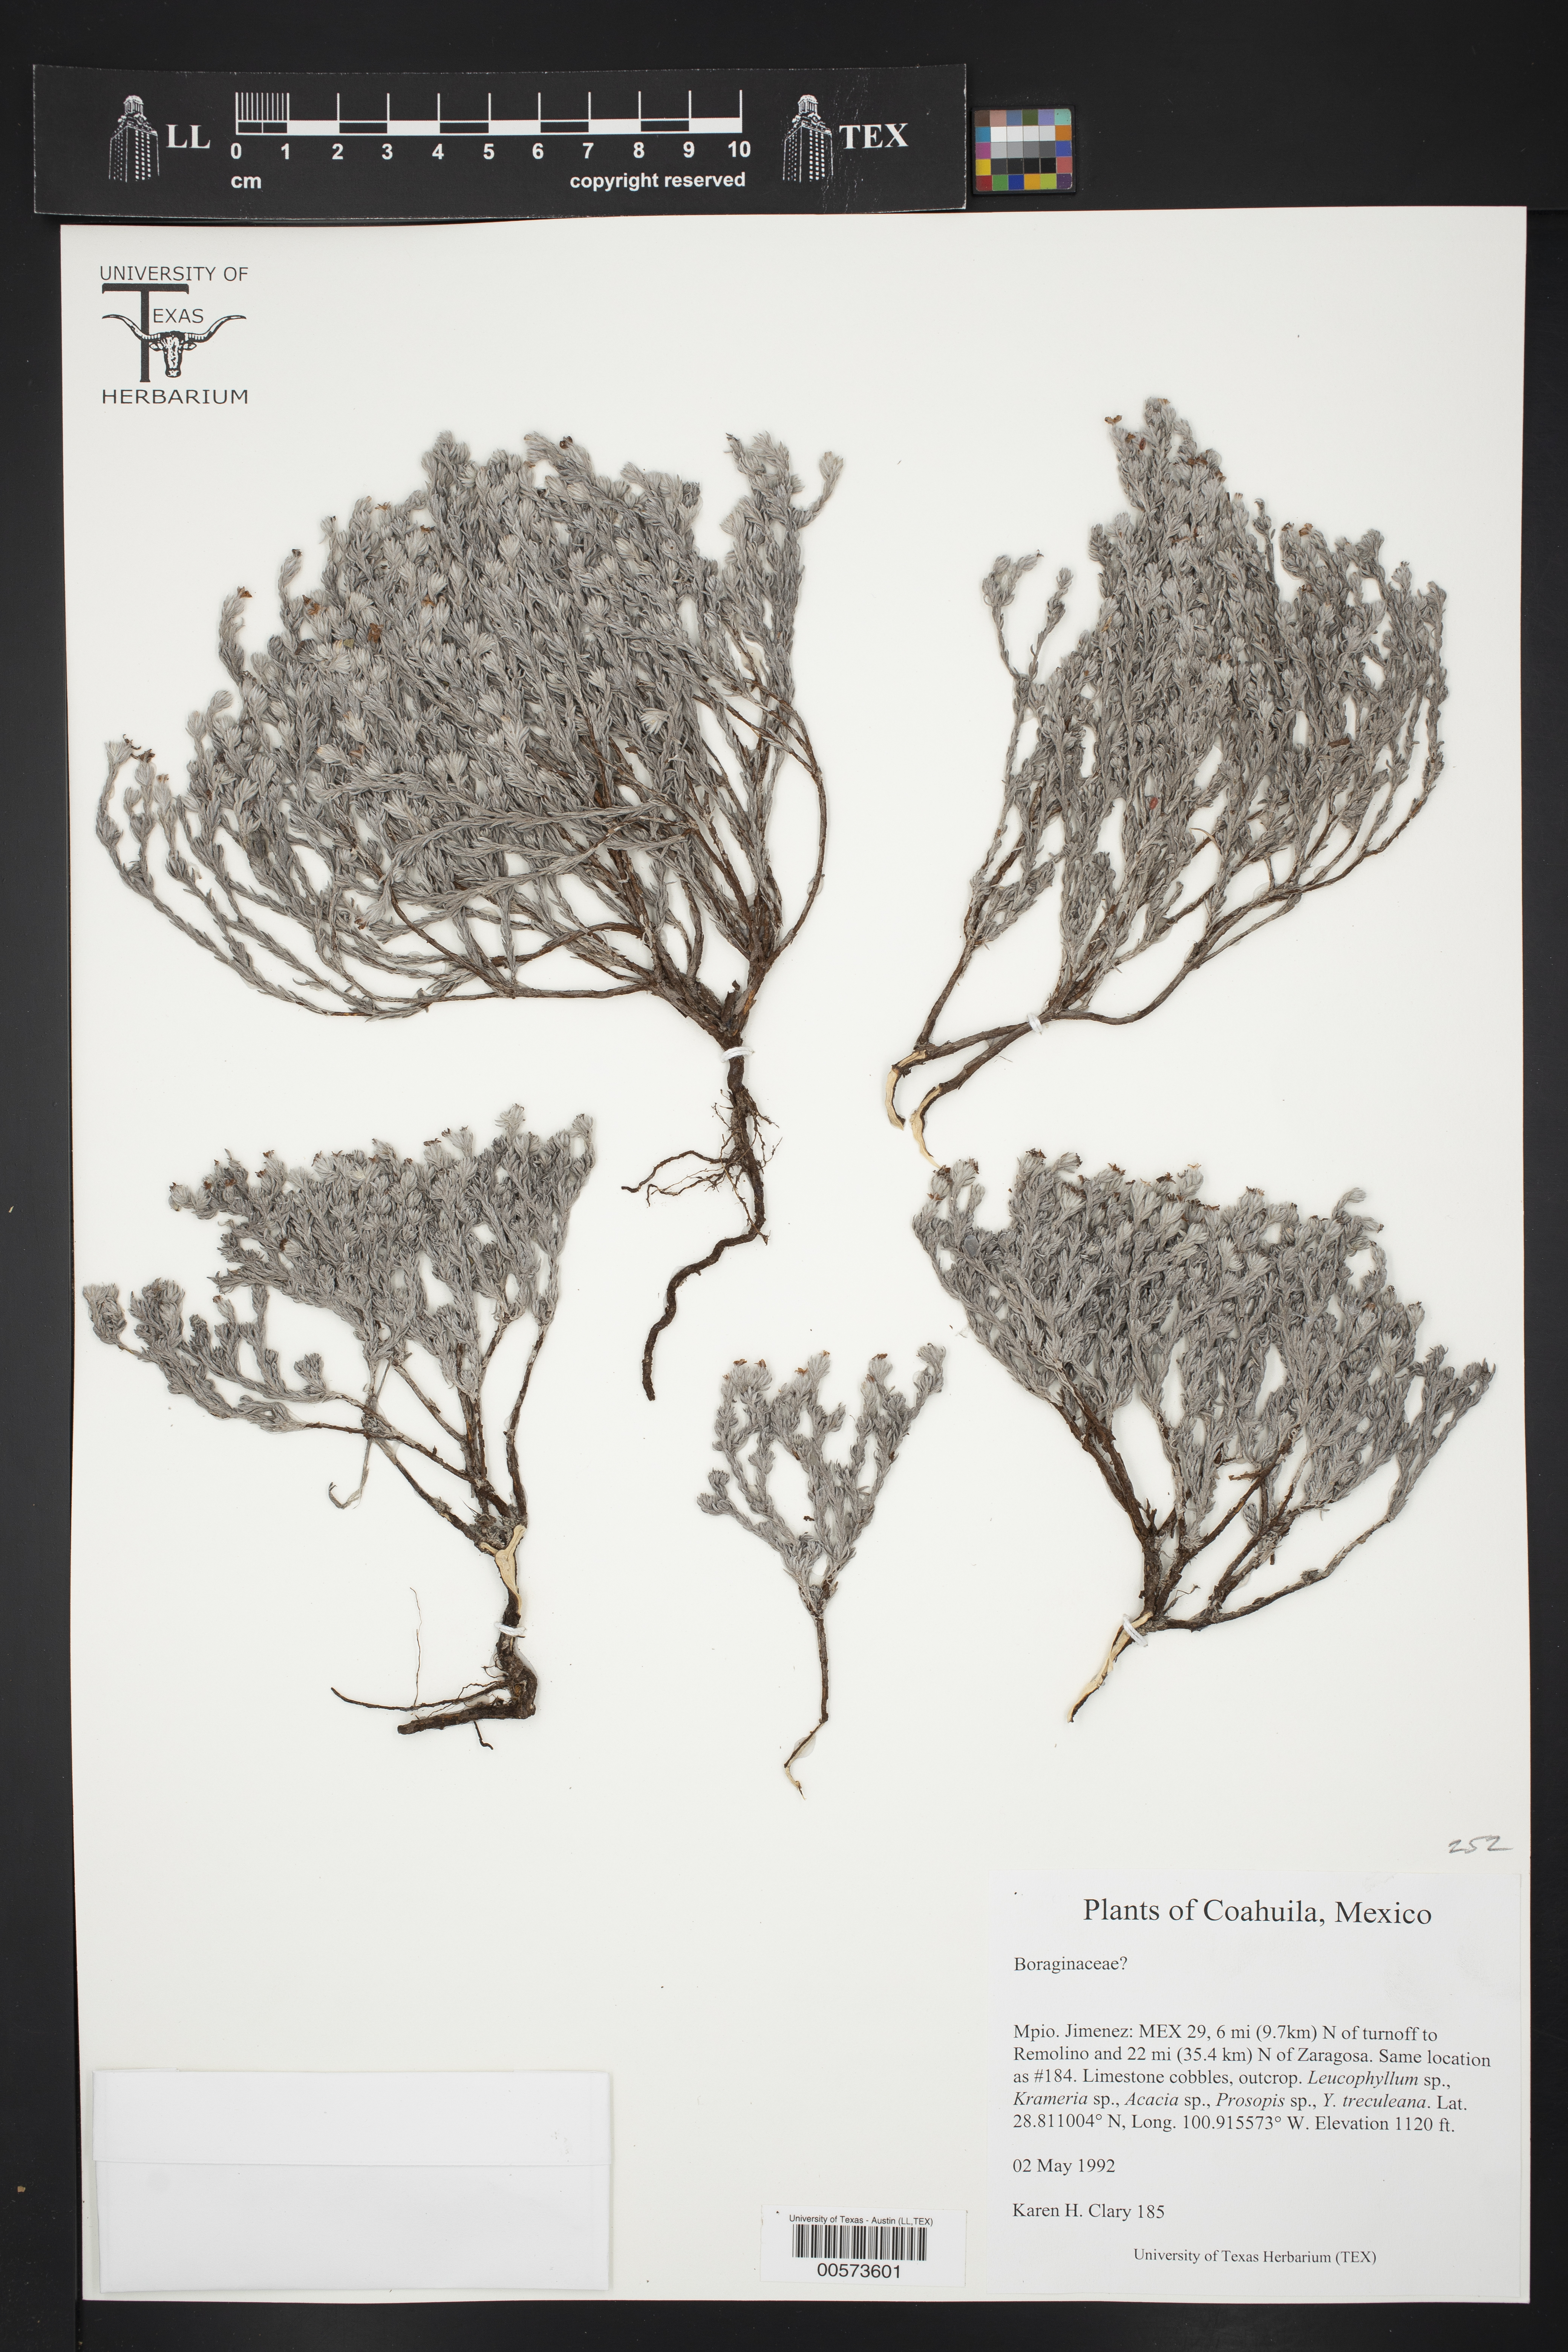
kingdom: Plantae
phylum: Tracheophyta
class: Magnoliopsida
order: Rosales
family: Moraceae
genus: Trophis
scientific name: Trophis mexicana
